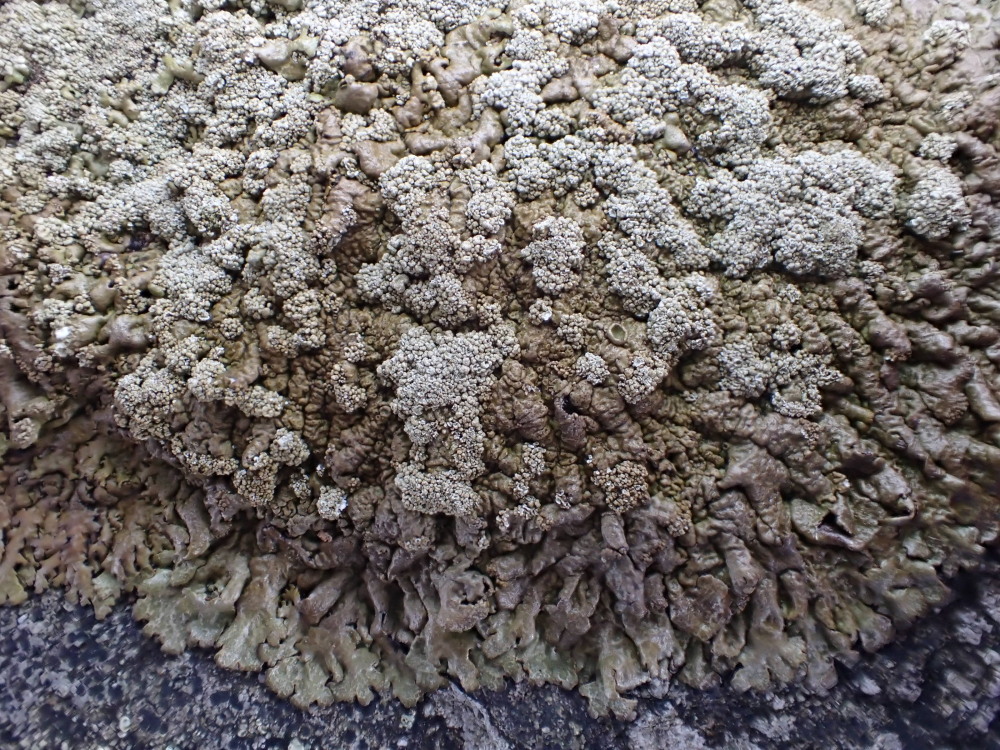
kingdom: Fungi
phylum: Ascomycota
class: Lecanoromycetes
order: Lecanorales
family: Parmeliaceae
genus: Xanthoparmelia
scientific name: Xanthoparmelia loxodes
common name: knudret skållav
